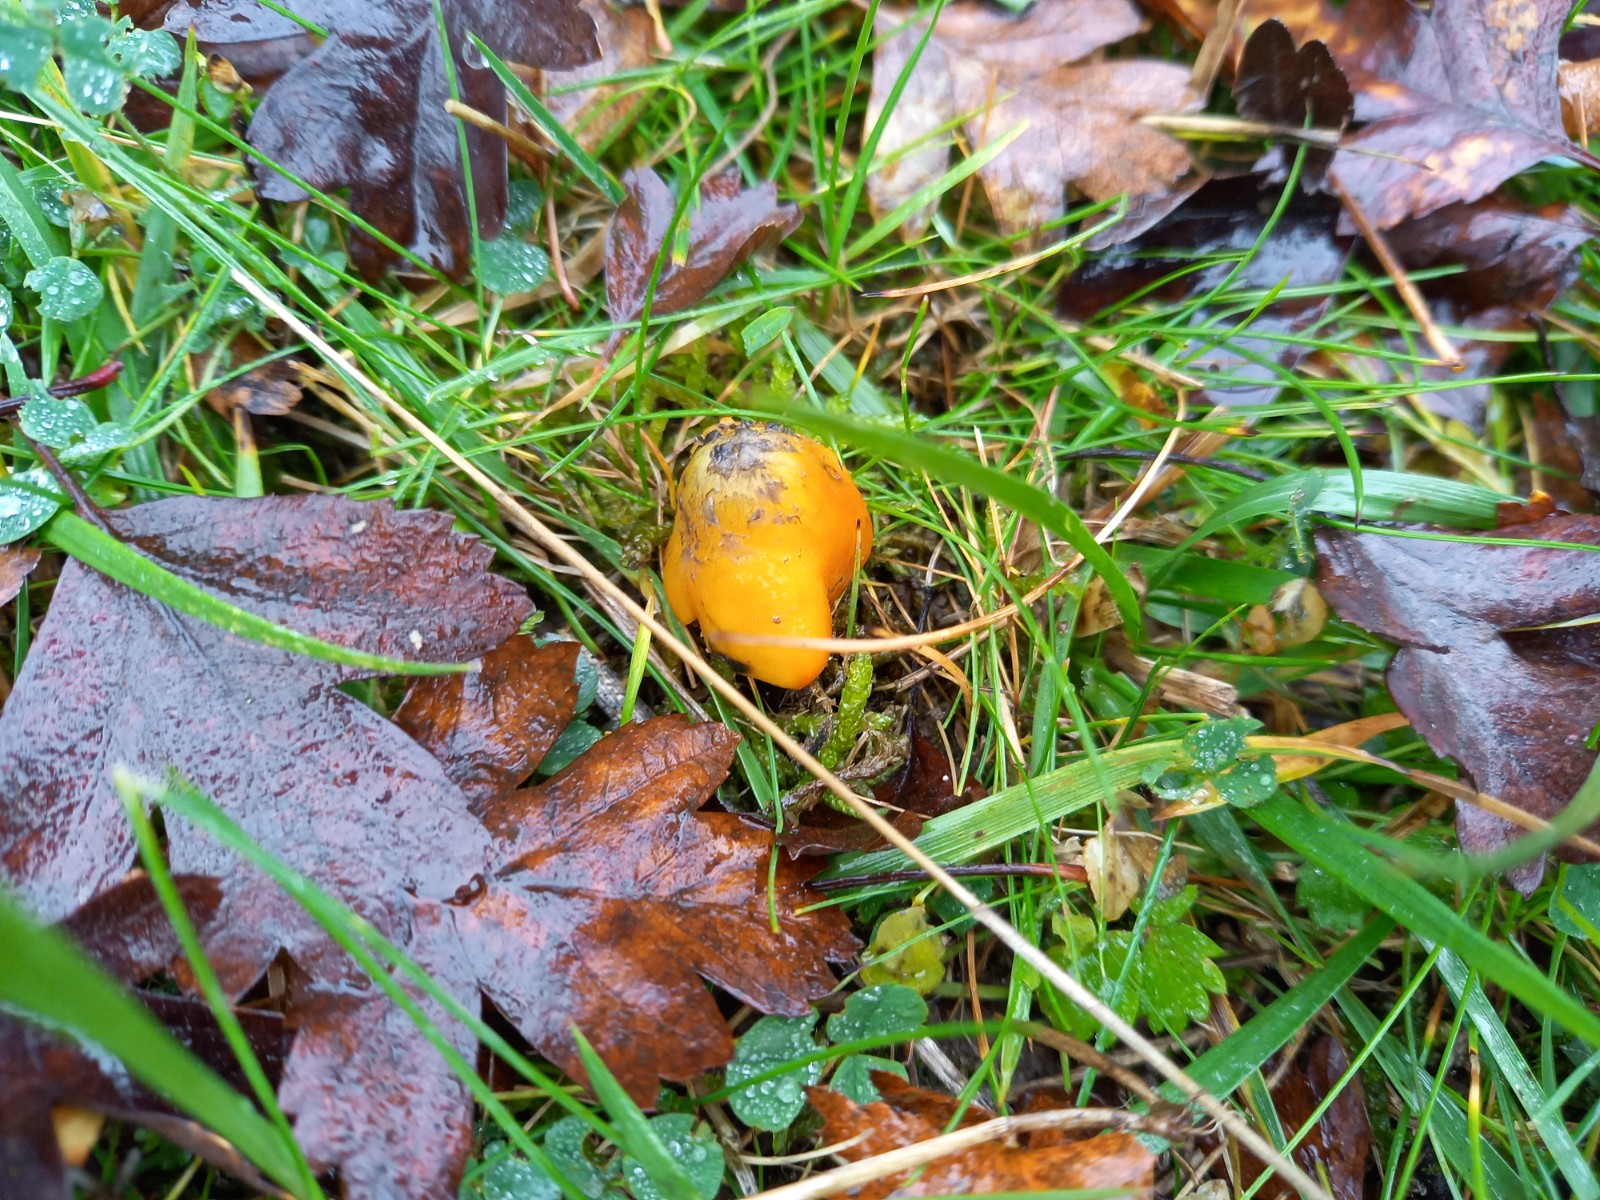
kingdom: Fungi
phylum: Basidiomycota
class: Agaricomycetes
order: Agaricales
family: Hygrophoraceae
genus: Hygrocybe
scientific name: Hygrocybe conica
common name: kegle-vokshat
